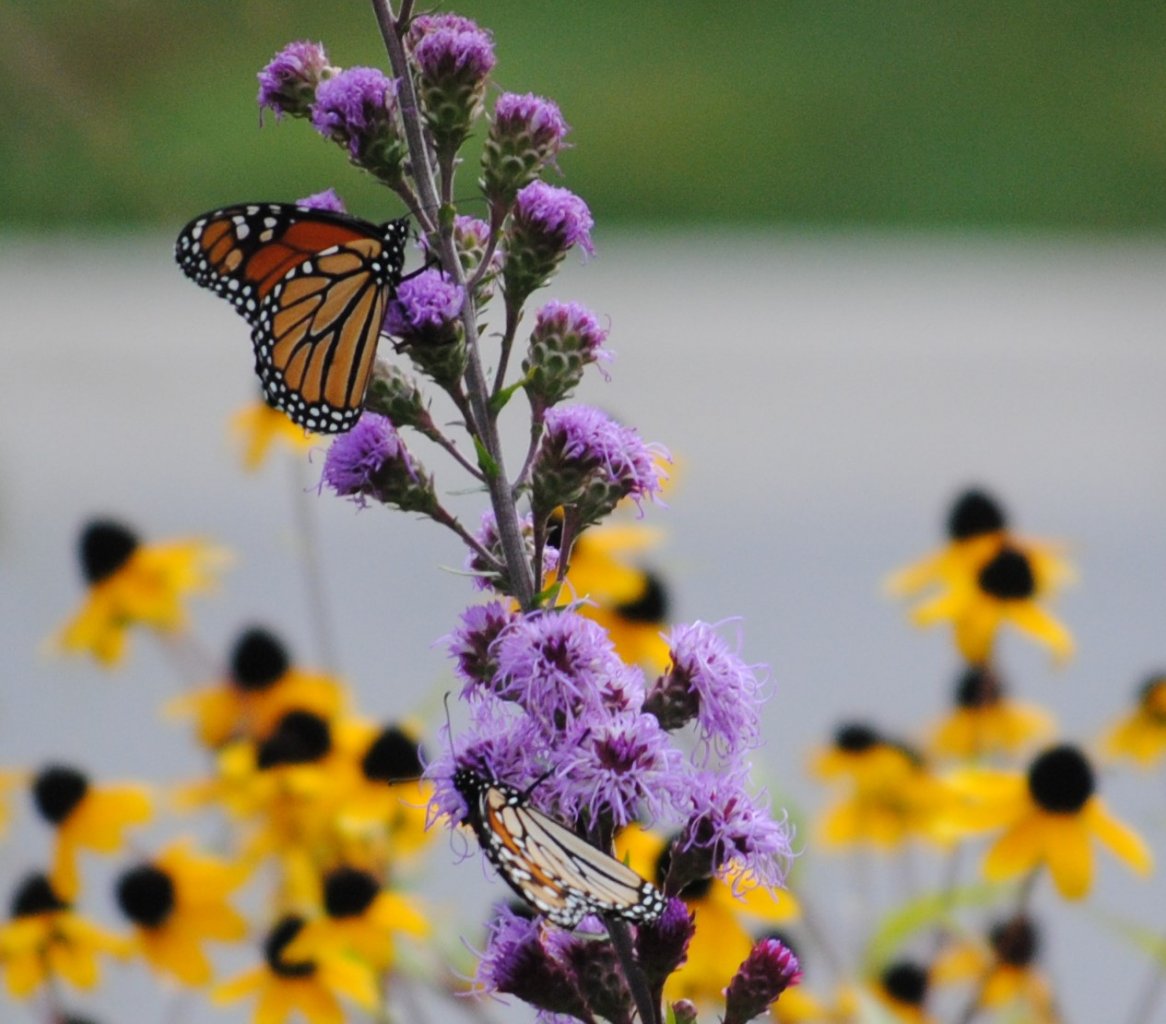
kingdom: Animalia
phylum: Arthropoda
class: Insecta
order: Lepidoptera
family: Nymphalidae
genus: Danaus
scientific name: Danaus plexippus
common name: Monarch
